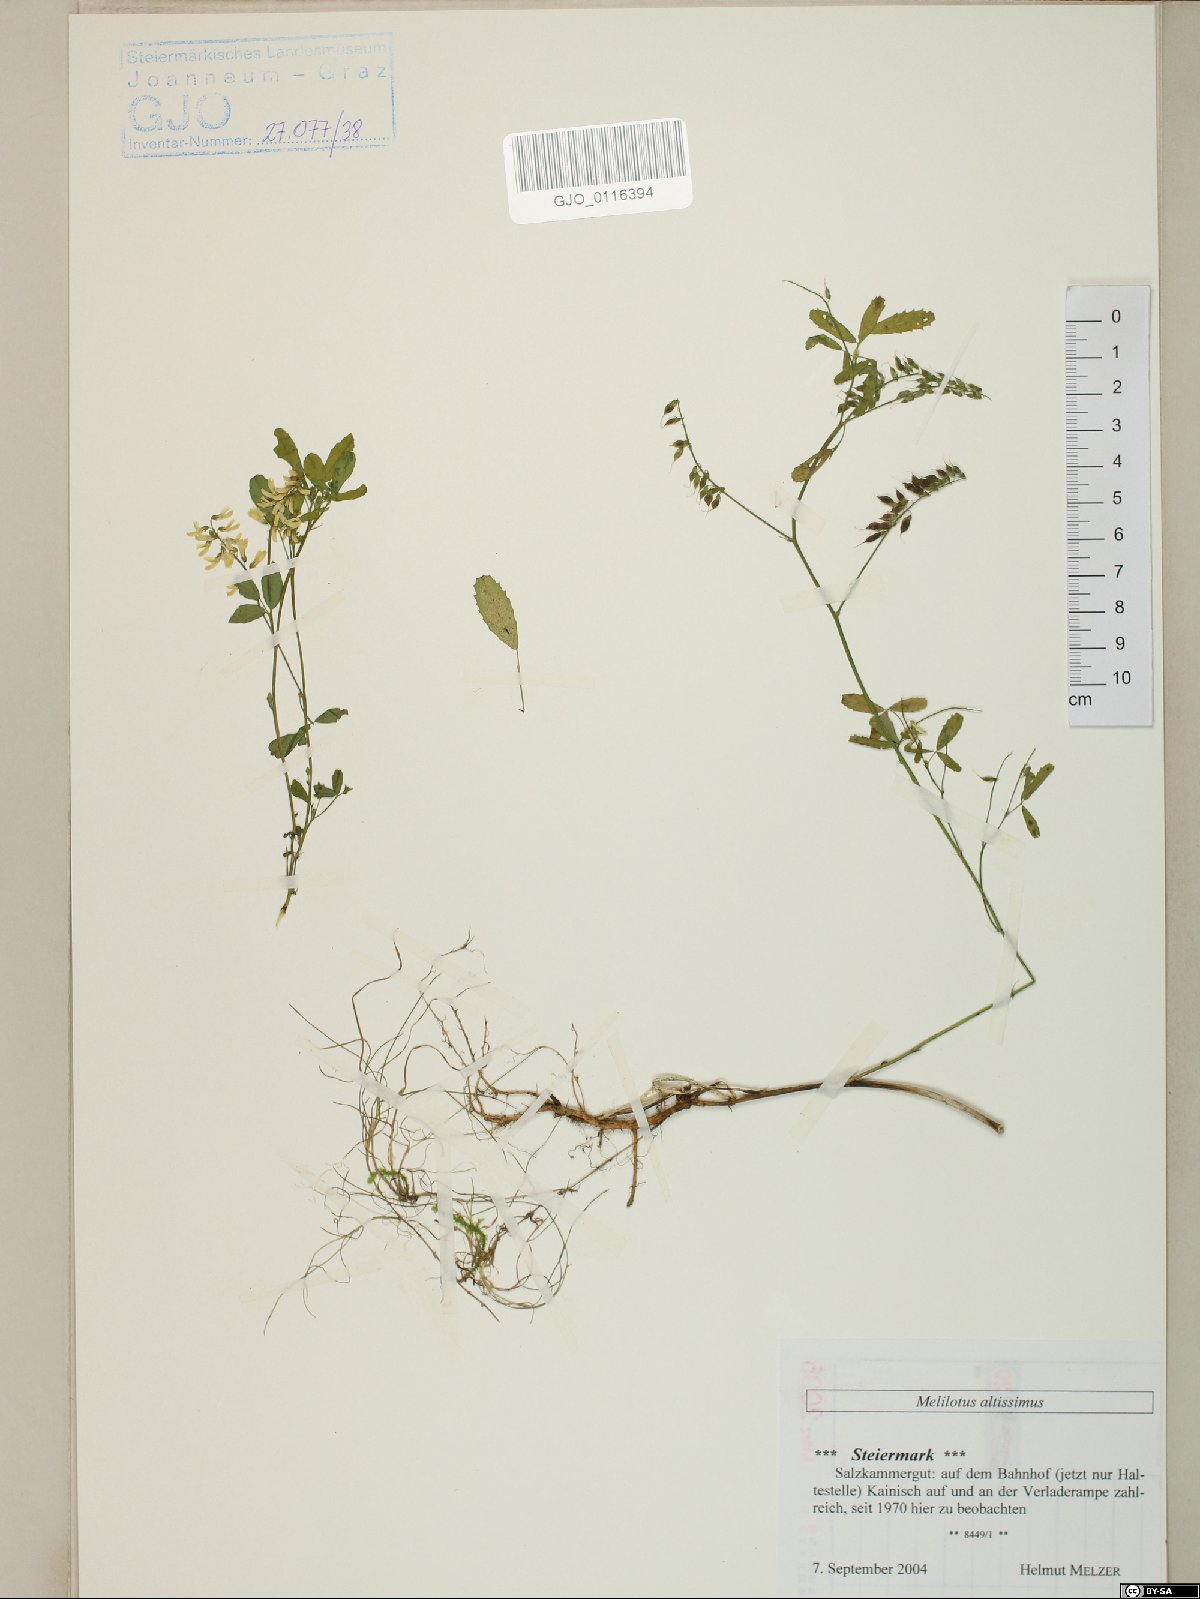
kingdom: Plantae
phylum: Tracheophyta
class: Magnoliopsida
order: Fabales
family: Fabaceae
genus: Melilotus
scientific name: Melilotus altissimus
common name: Tall melilot
